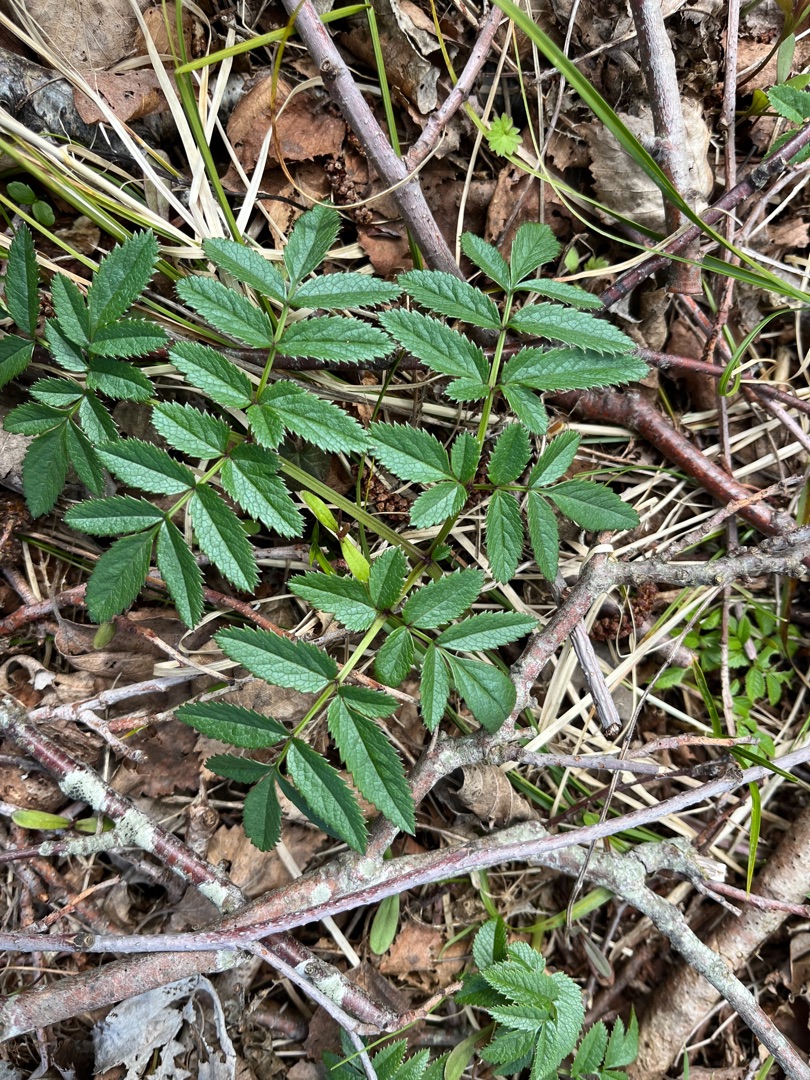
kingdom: Plantae
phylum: Tracheophyta
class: Magnoliopsida
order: Apiales
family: Apiaceae
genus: Angelica
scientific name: Angelica sylvestris
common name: Angelik
